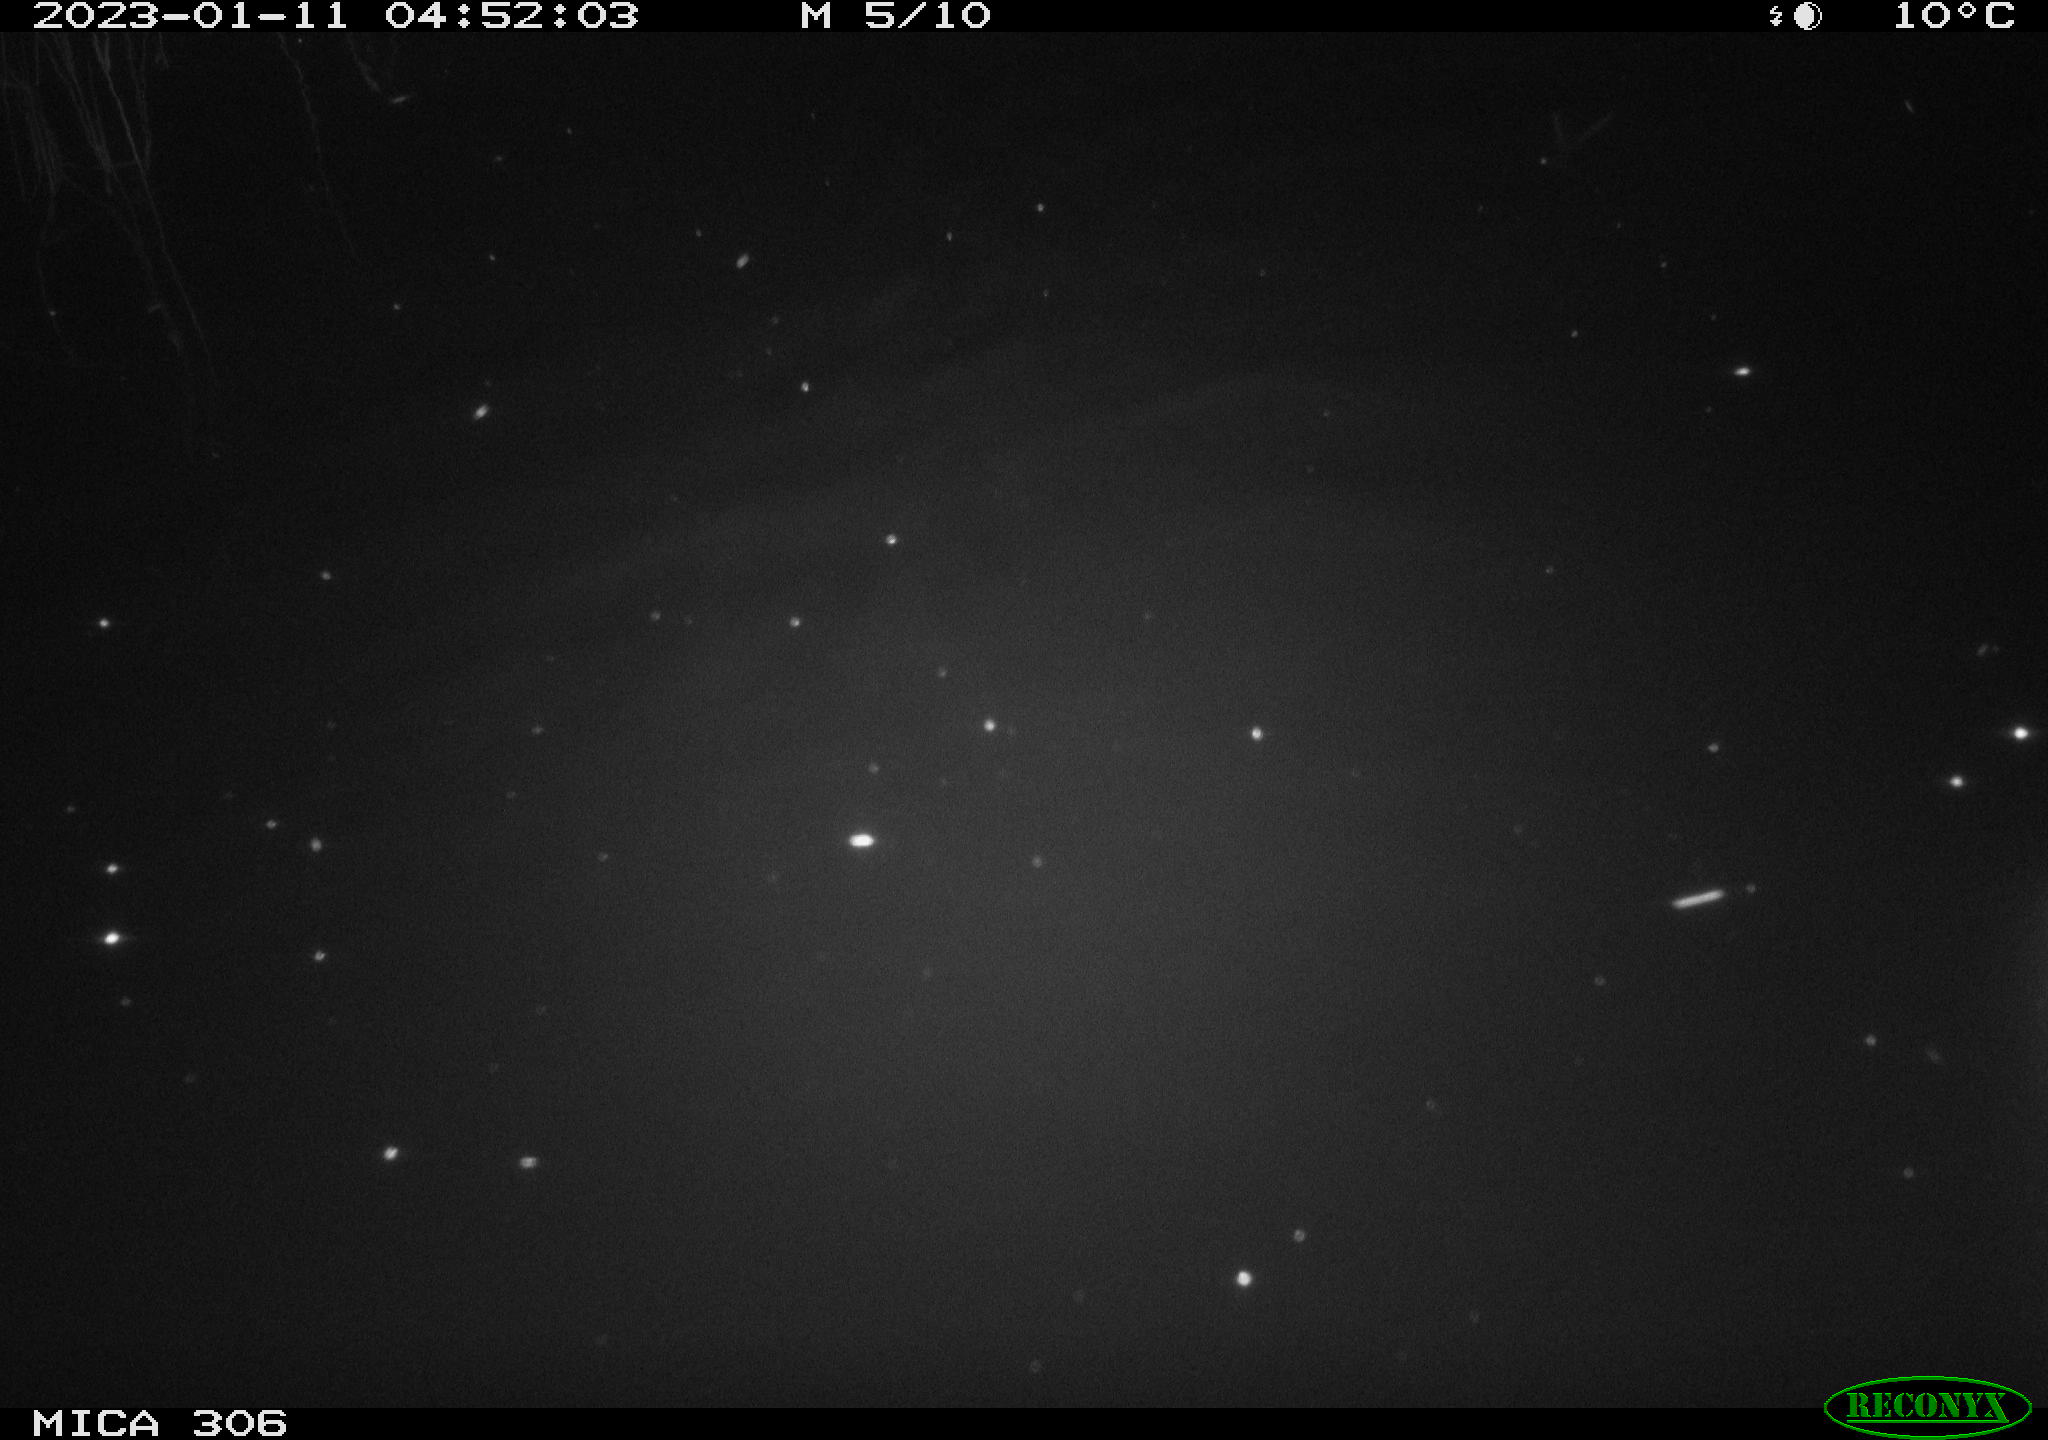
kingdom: Animalia
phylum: Chordata
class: Mammalia
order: Rodentia
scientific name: Rodentia
